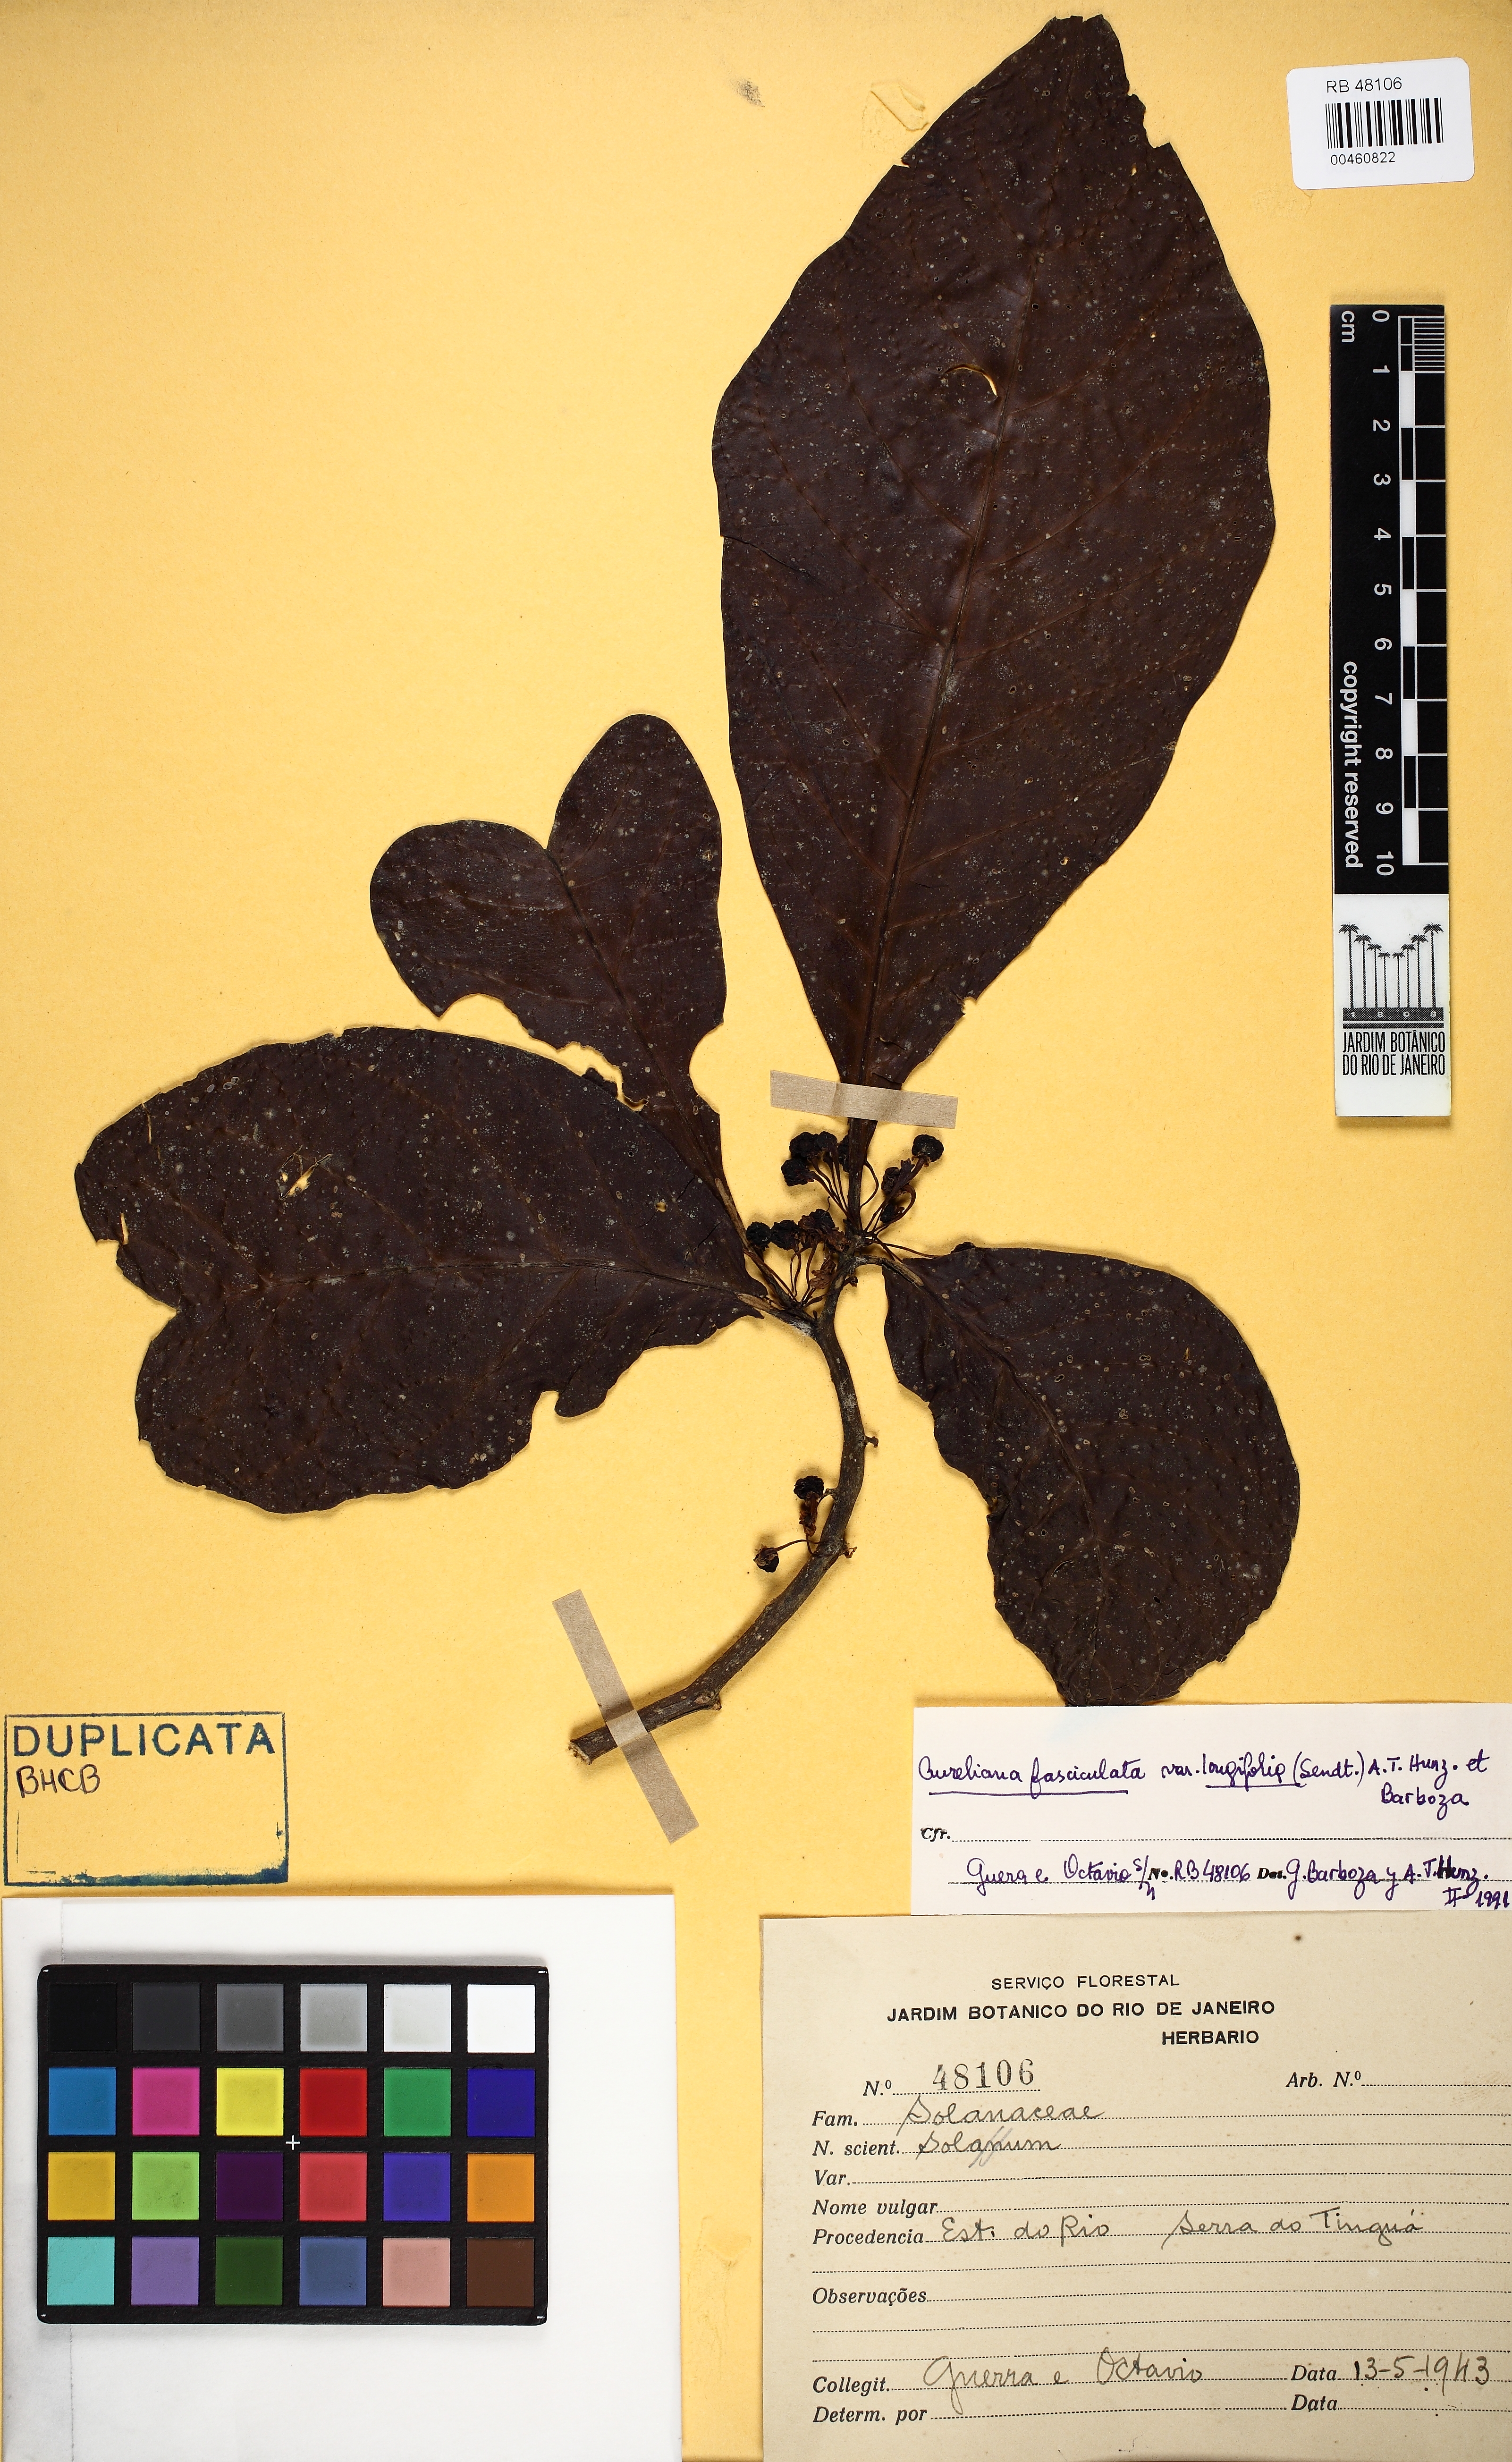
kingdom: Plantae
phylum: Tracheophyta
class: Magnoliopsida
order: Solanales
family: Solanaceae
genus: Solanum
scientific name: Solanum lacteum
